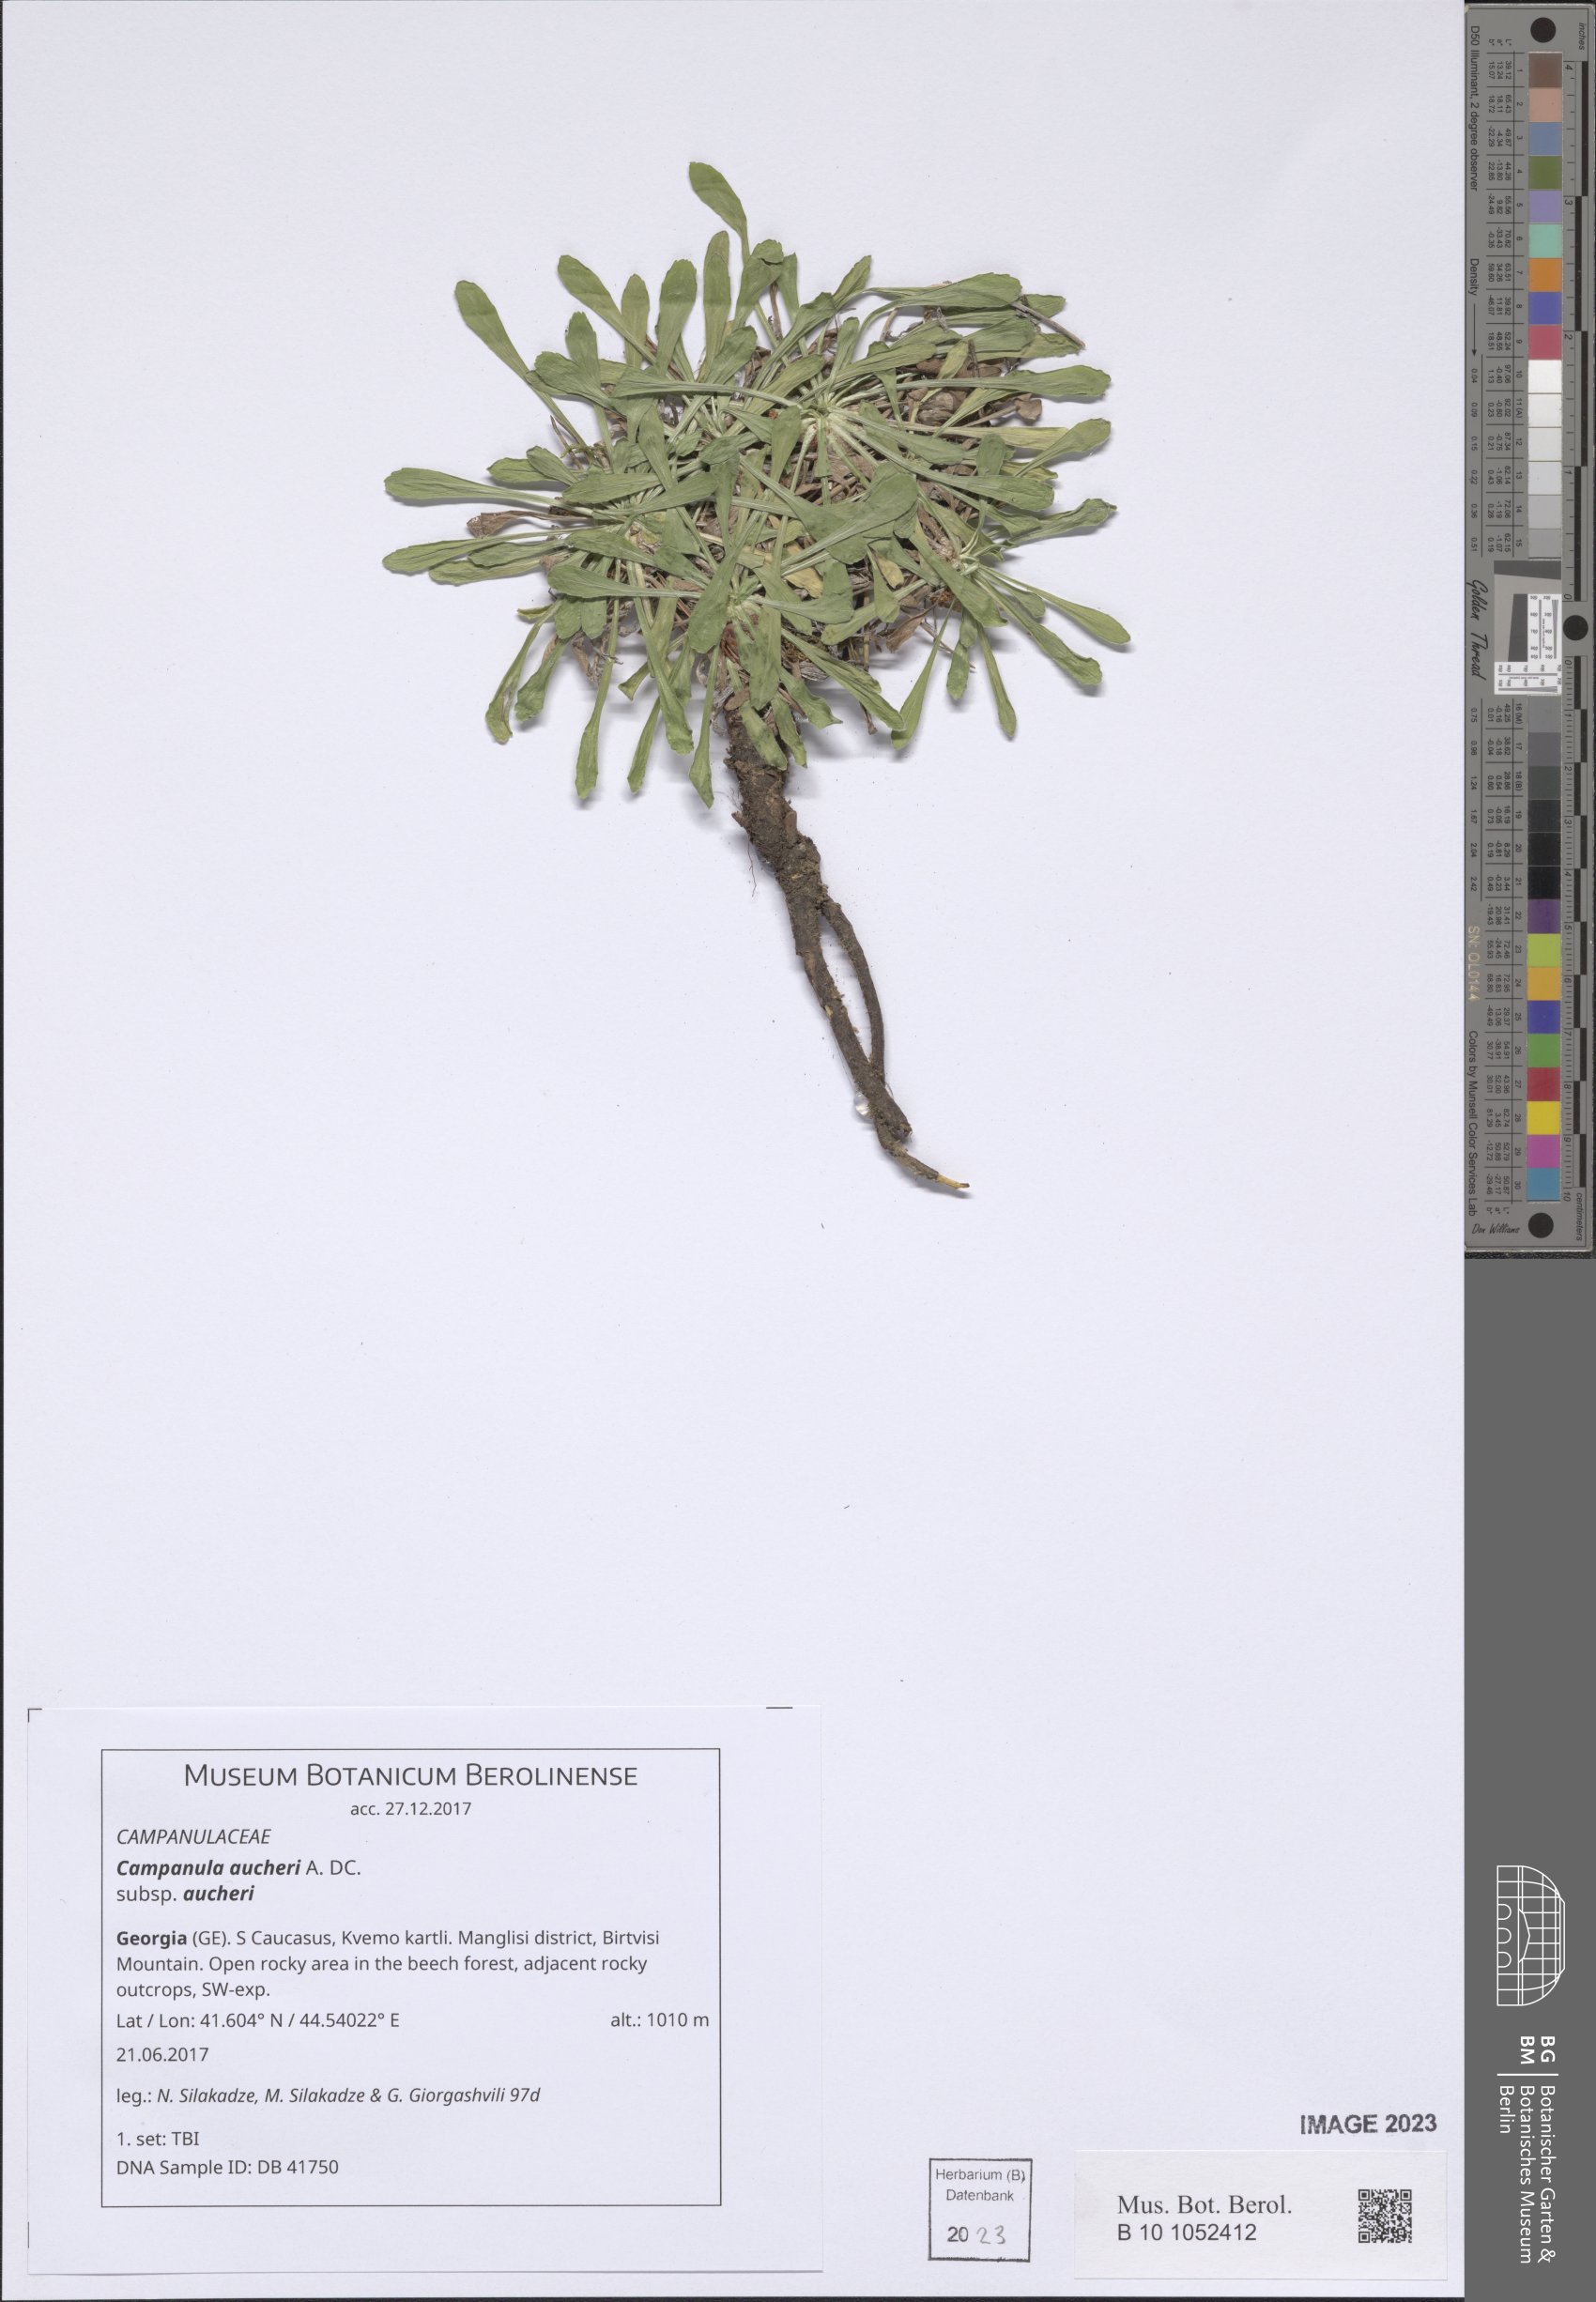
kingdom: Plantae
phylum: Tracheophyta
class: Magnoliopsida
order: Asterales
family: Campanulaceae
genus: Campanula
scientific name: Campanula saxifraga
